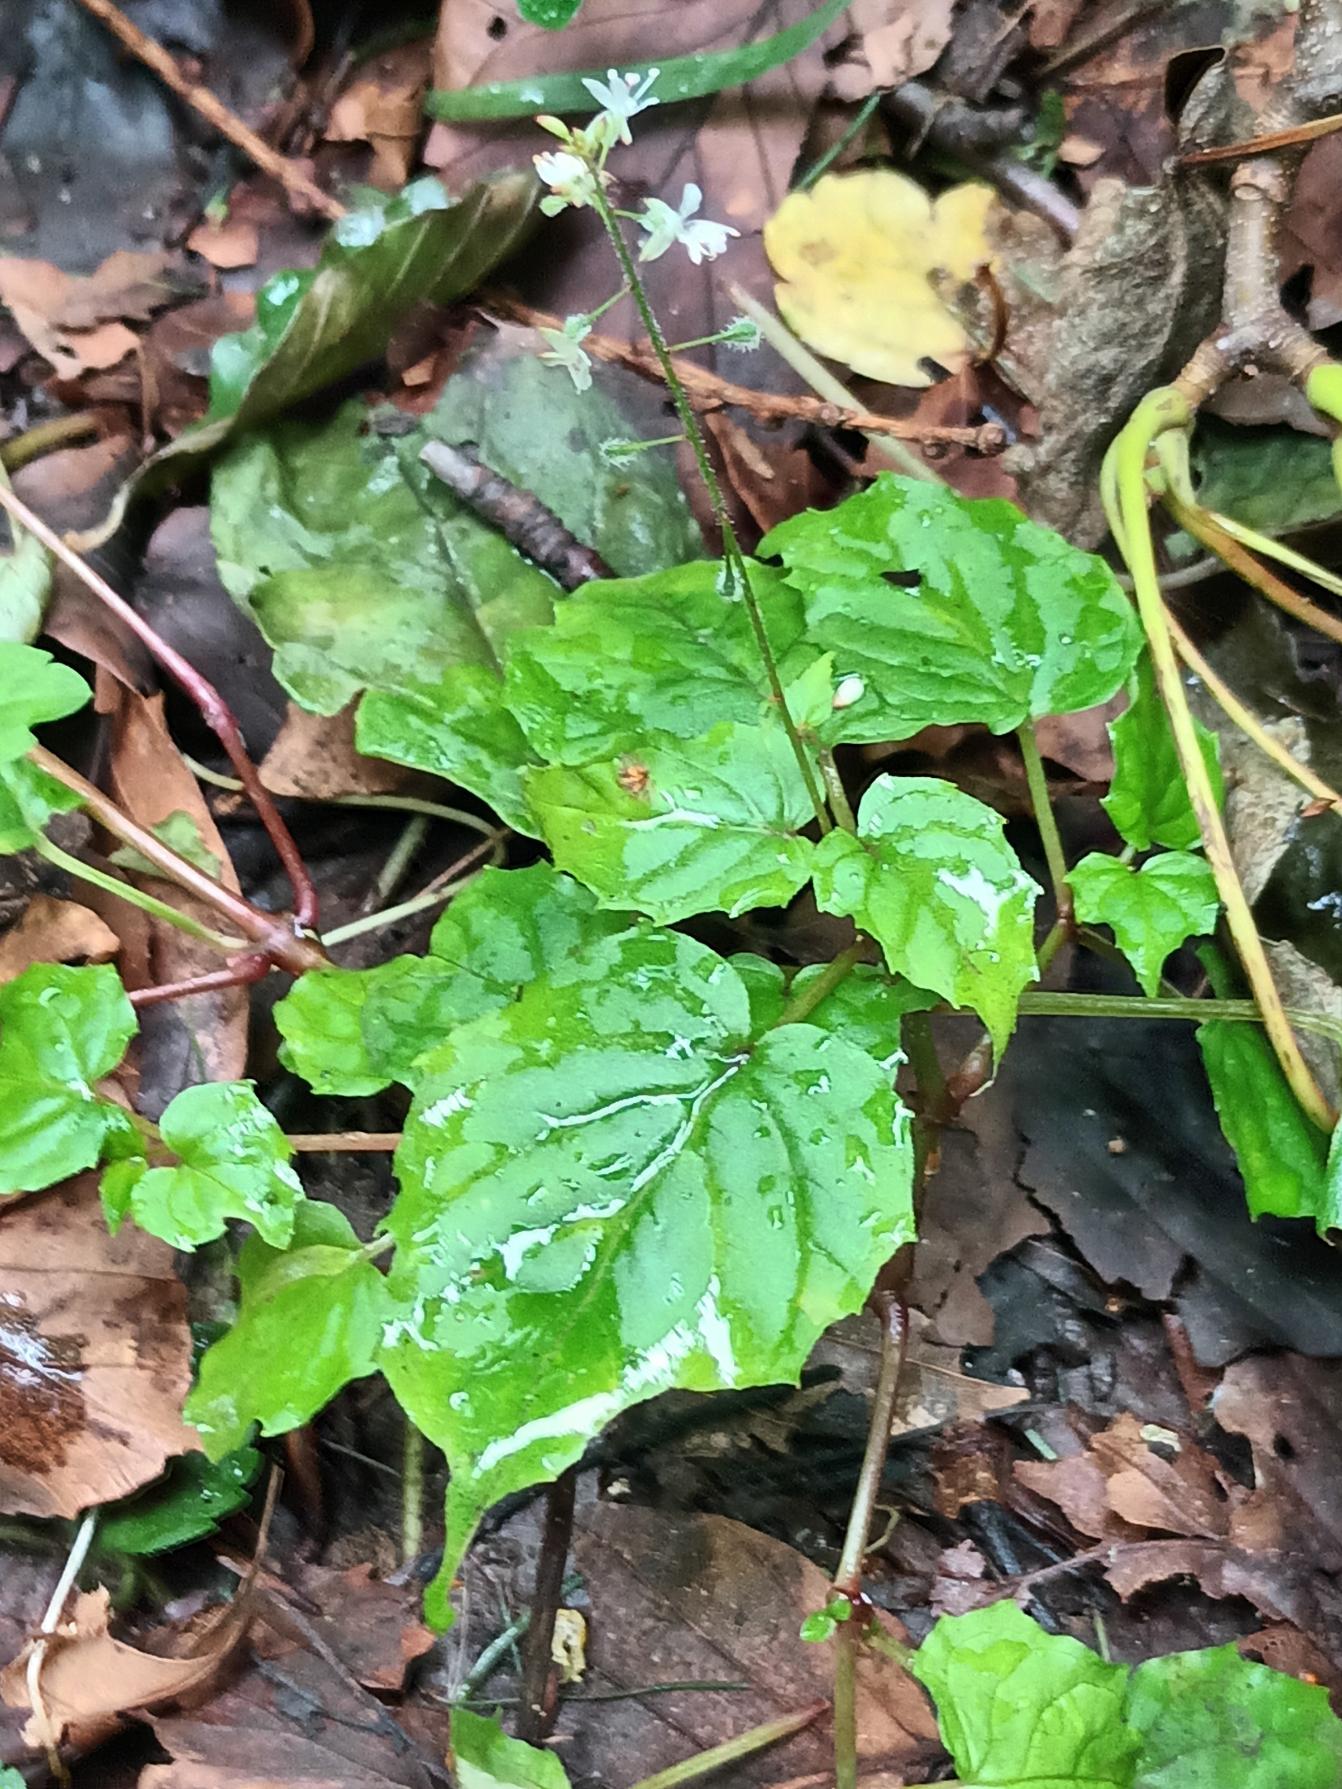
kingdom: Plantae
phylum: Tracheophyta
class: Magnoliopsida
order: Myrtales
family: Onagraceae
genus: Circaea
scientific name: Circaea intermedia
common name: Spidsbladet steffensurt
